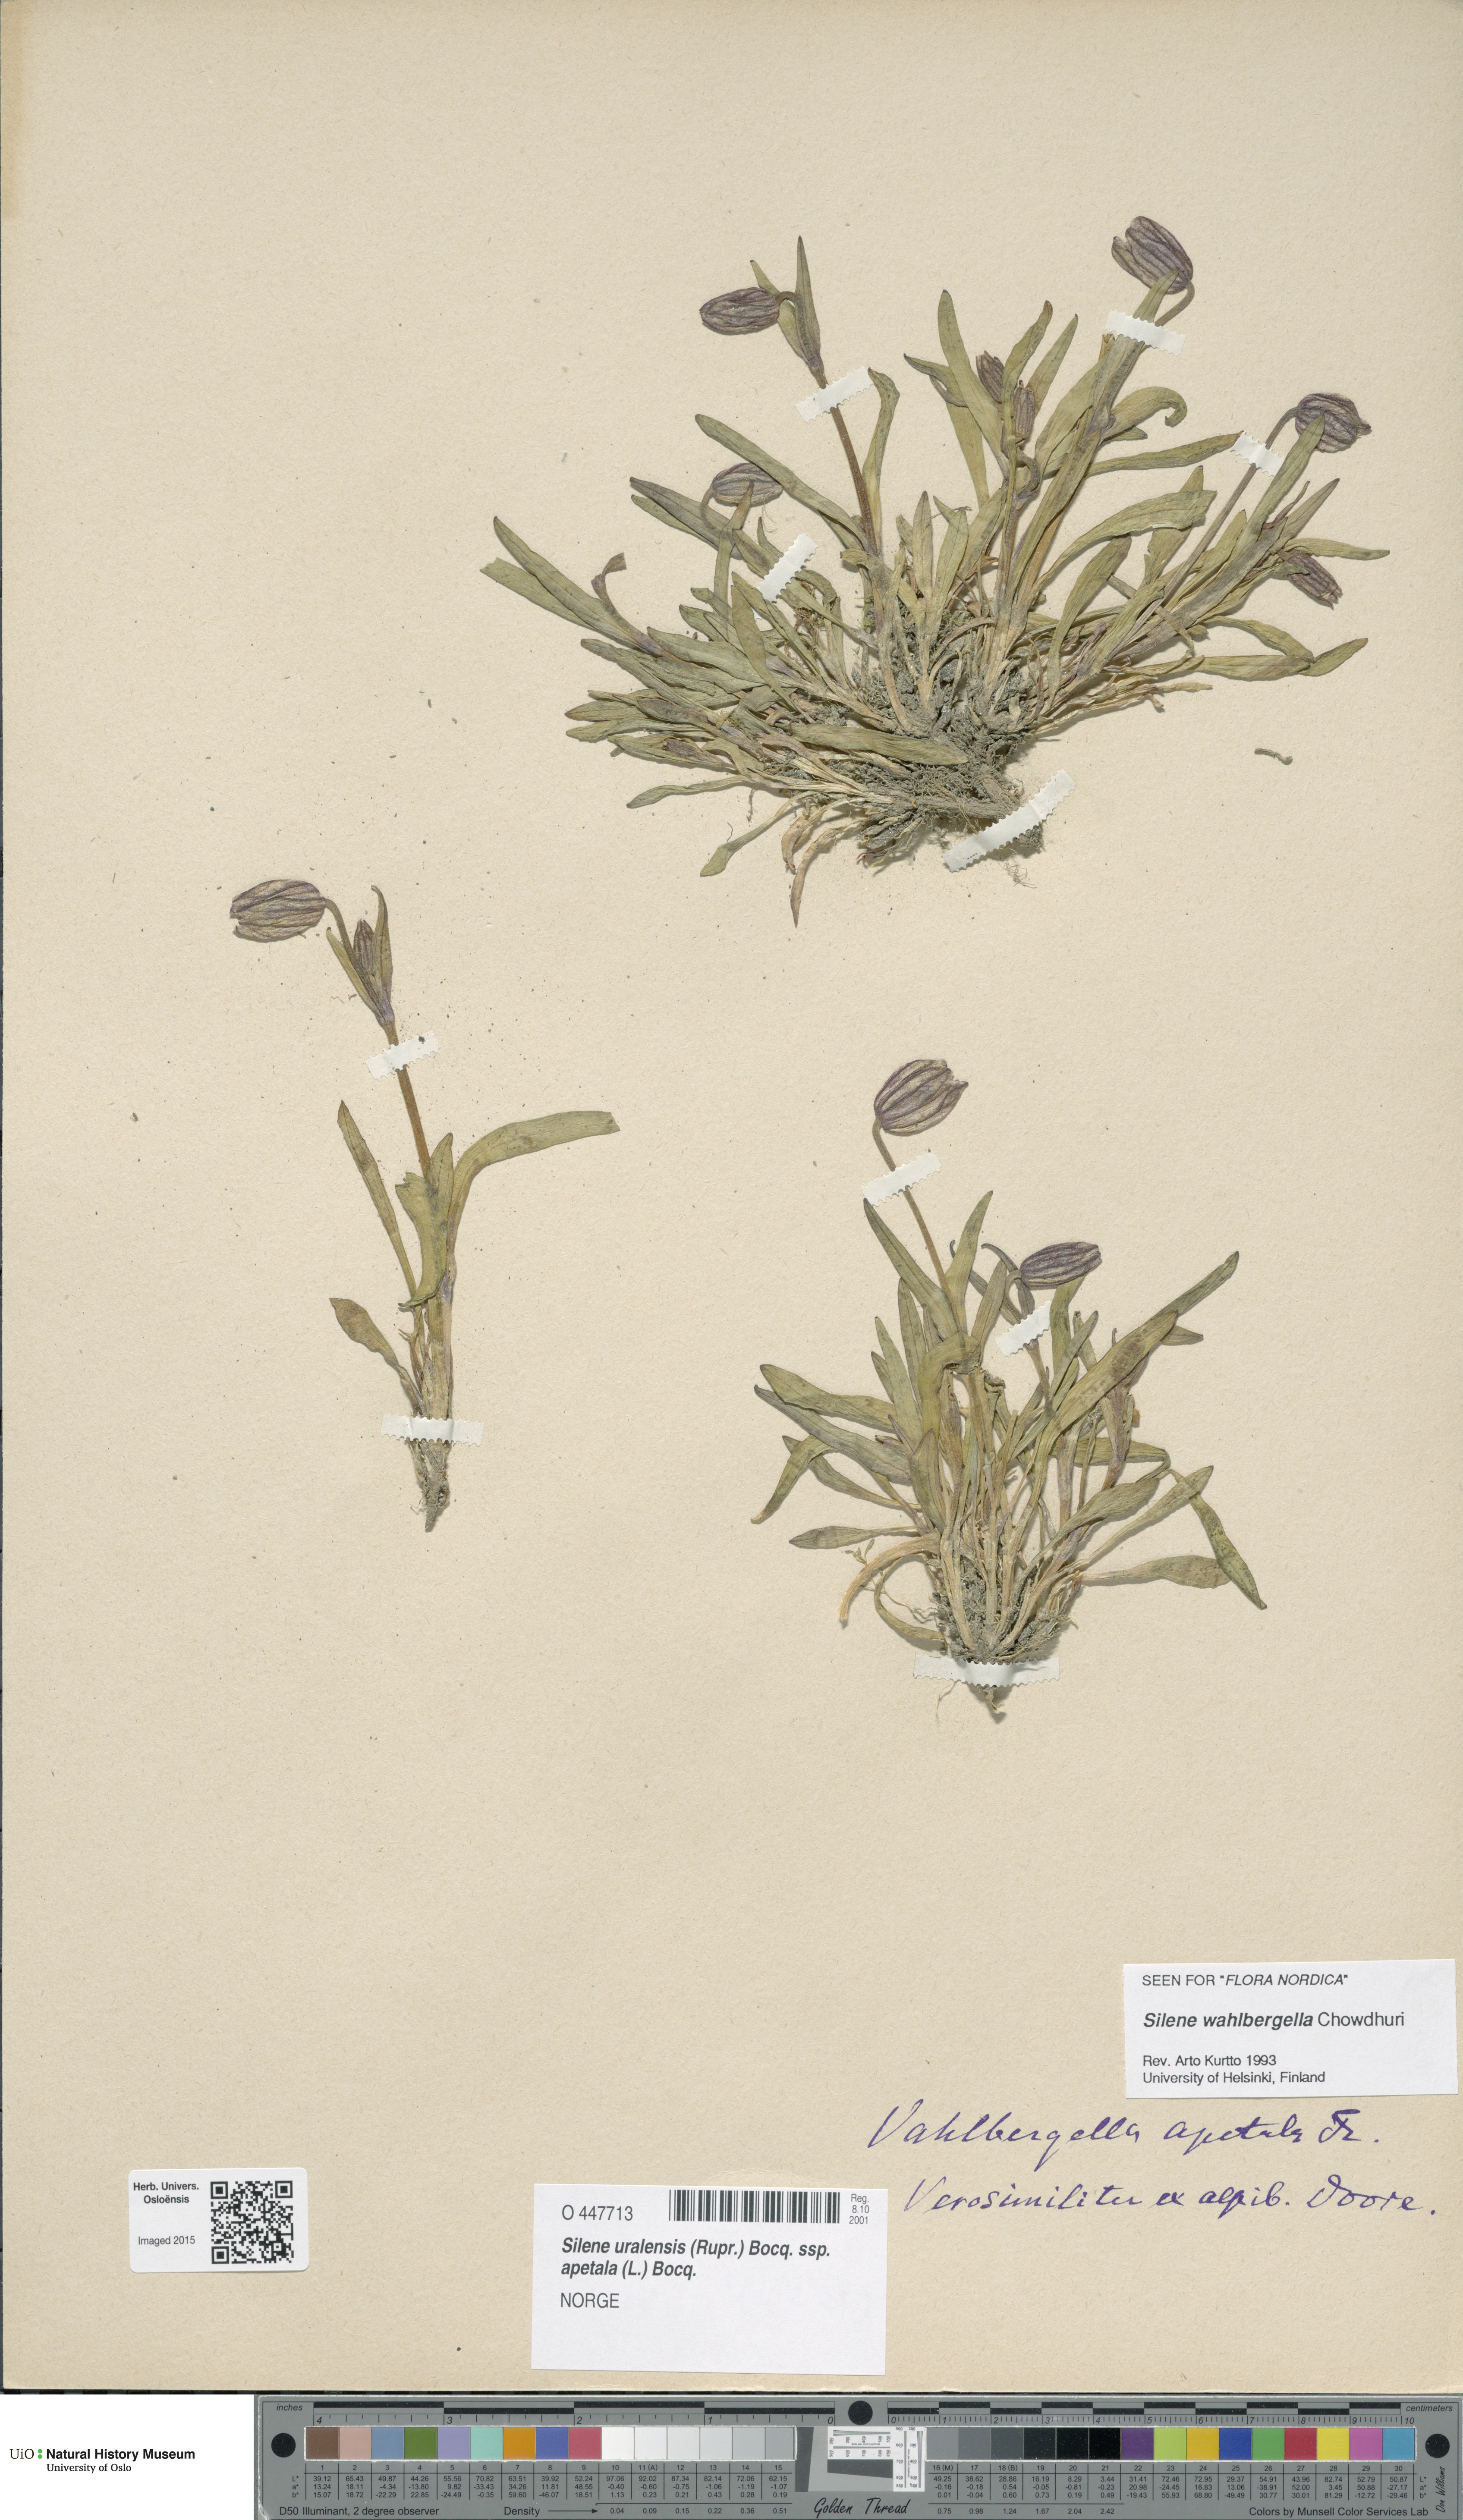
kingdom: Plantae
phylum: Tracheophyta
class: Magnoliopsida
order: Caryophyllales
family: Caryophyllaceae
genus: Silene
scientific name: Silene wahlbergella
